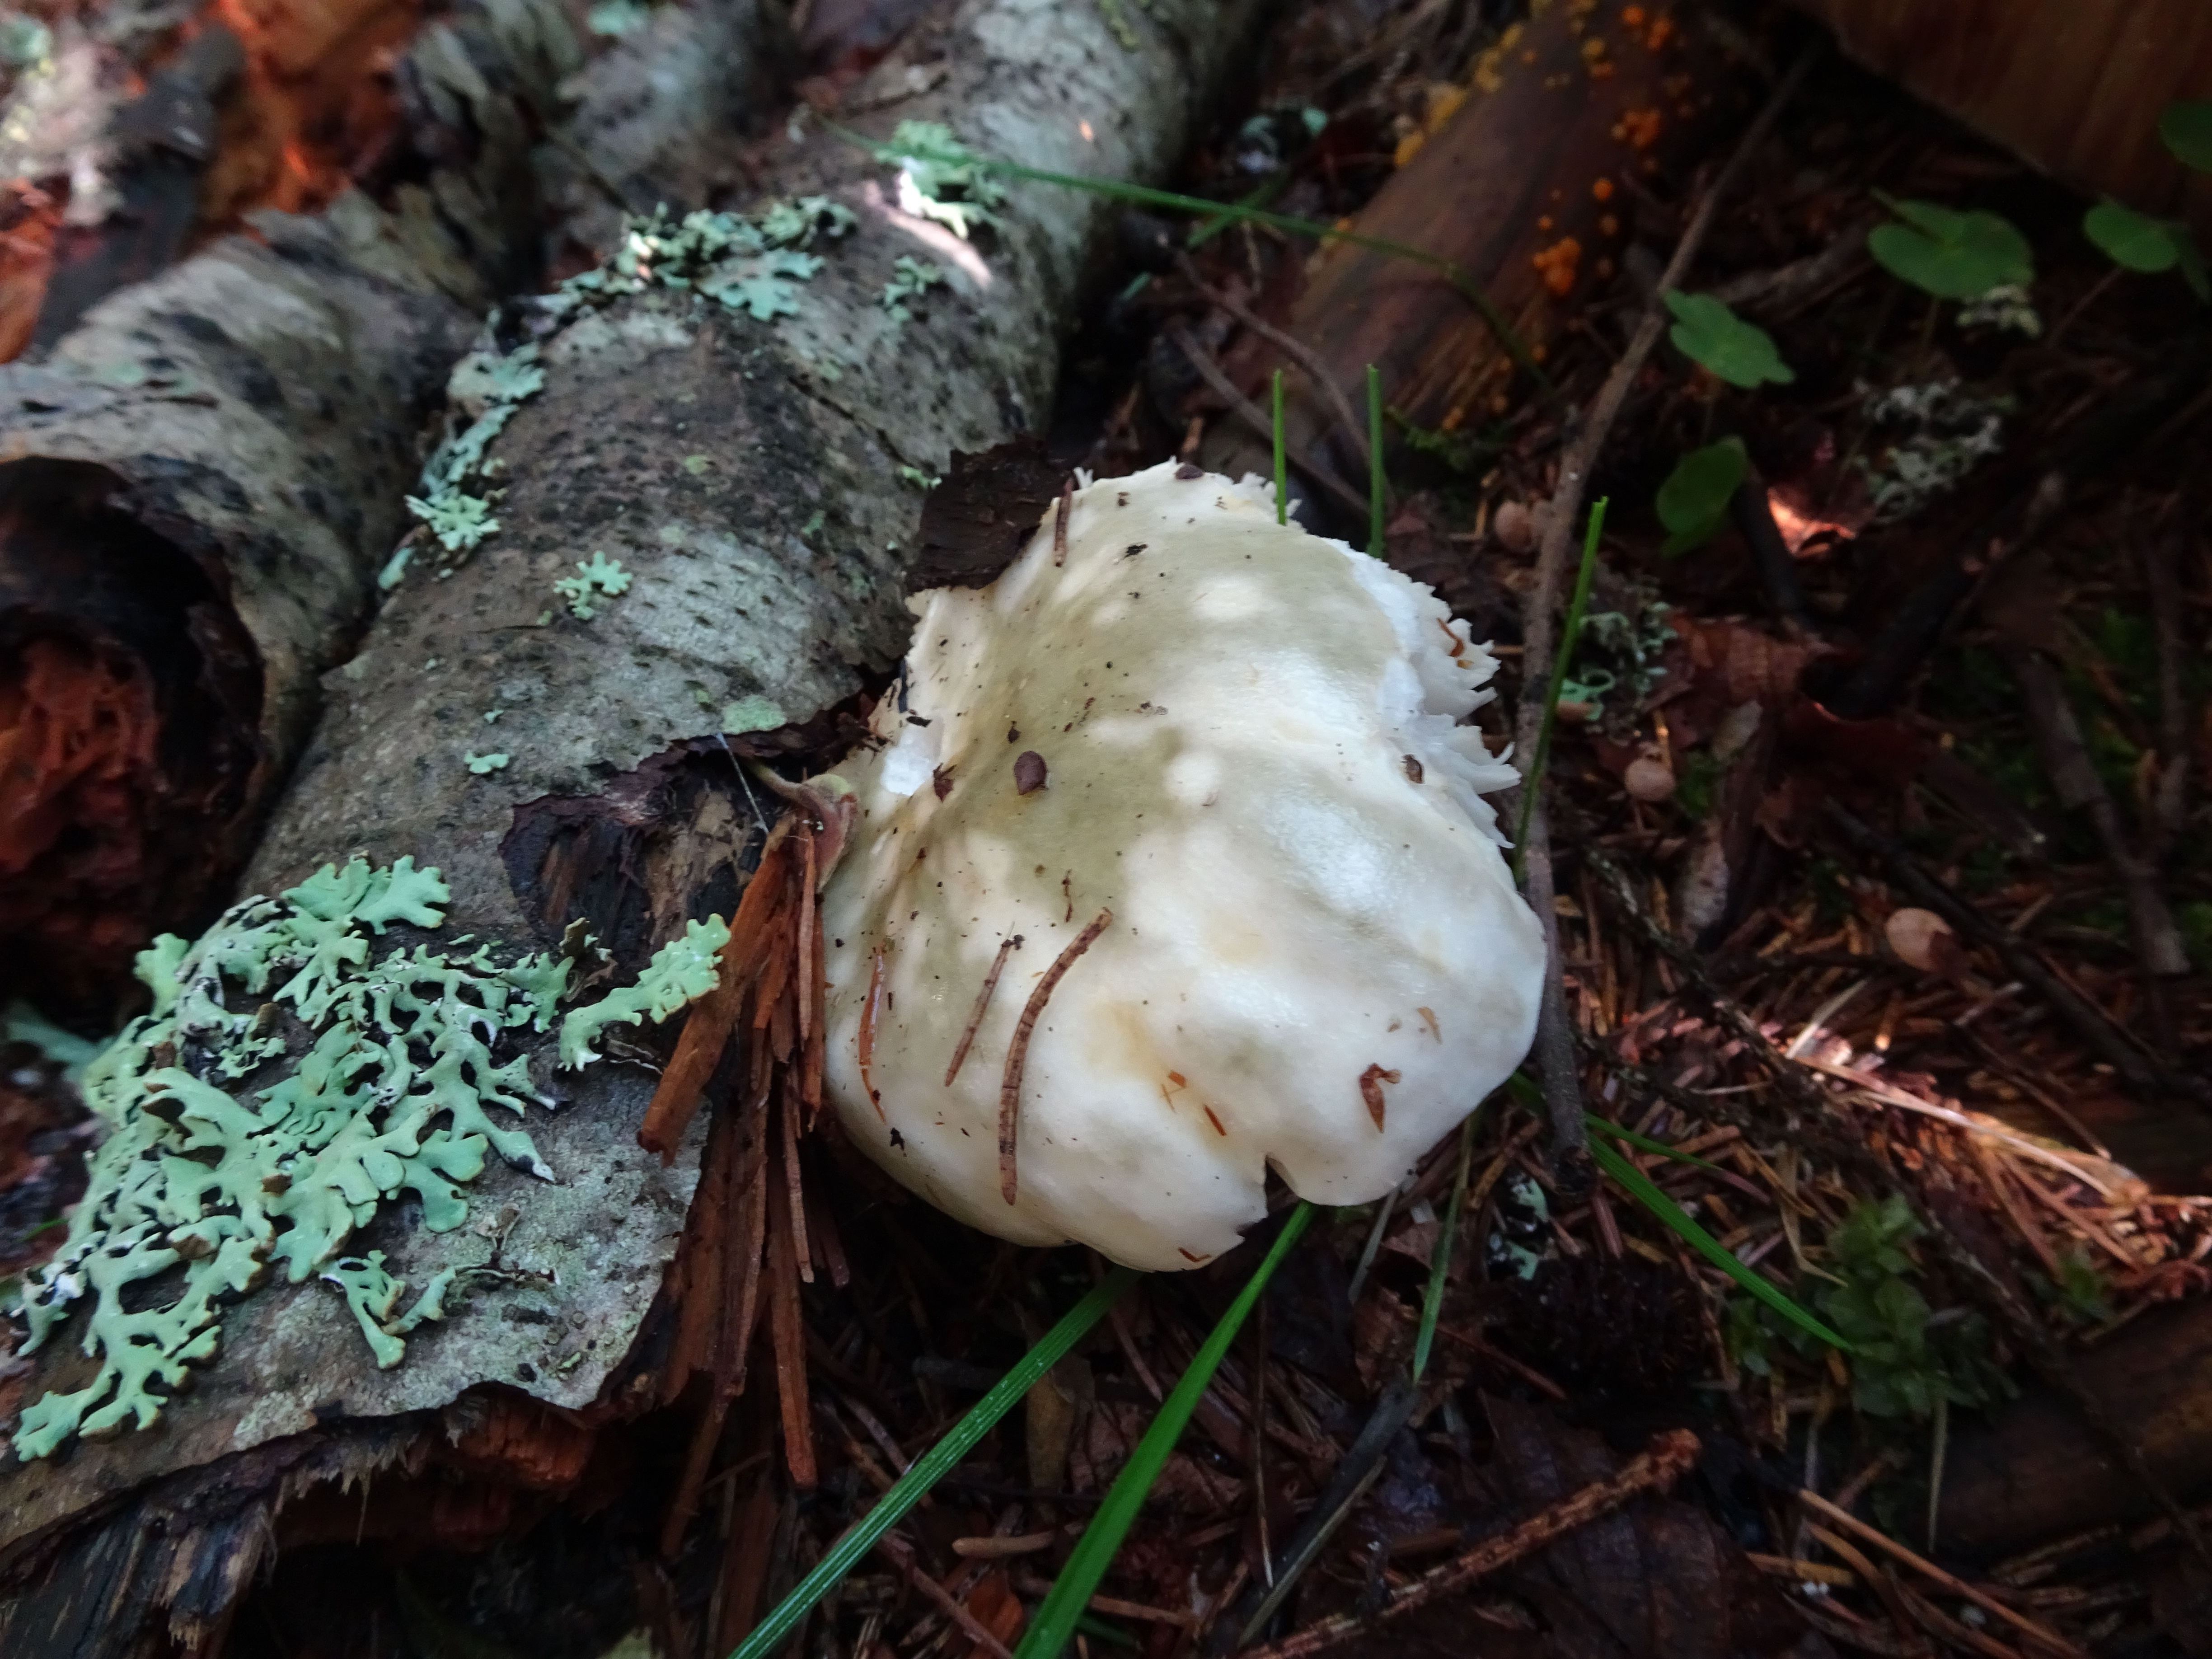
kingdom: Fungi
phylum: Basidiomycota
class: Agaricomycetes
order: Russulales
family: Russulaceae
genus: Russula
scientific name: Russula aeruginea
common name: Green brittlegill
